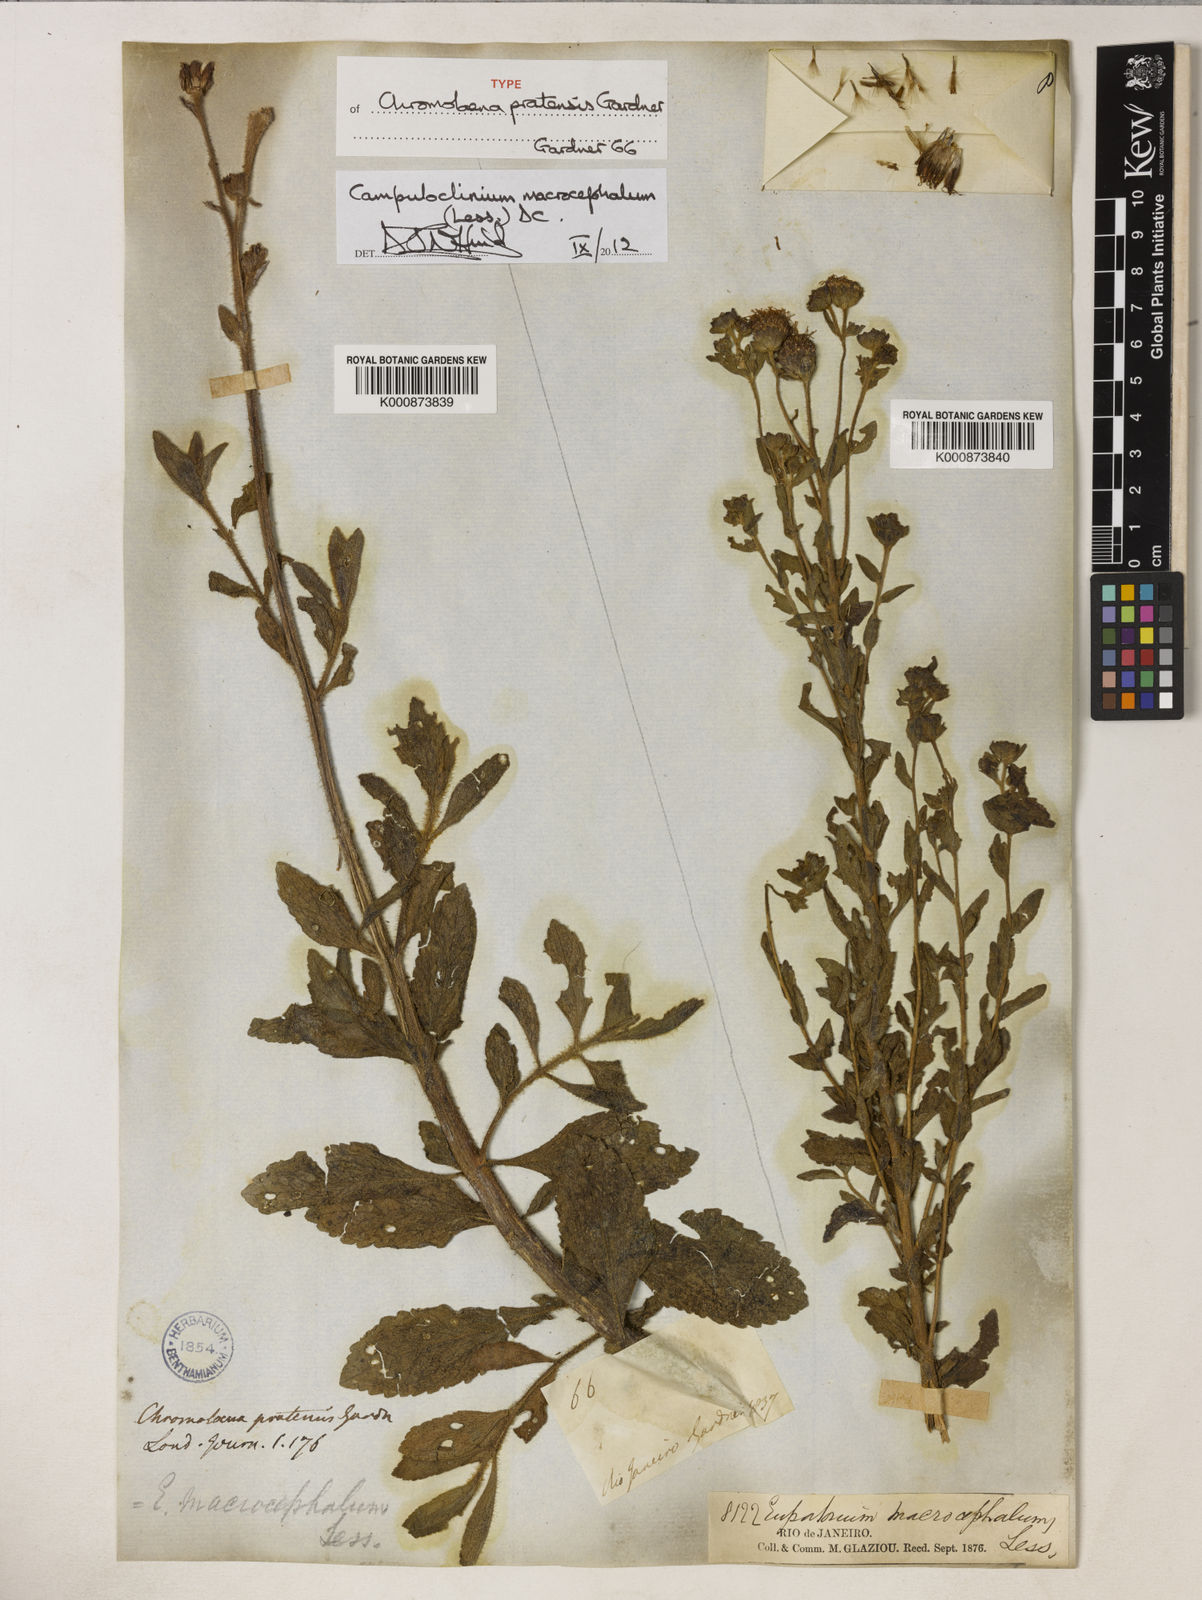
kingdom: Plantae
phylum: Tracheophyta
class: Magnoliopsida
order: Asterales
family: Asteraceae
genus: Campuloclinium
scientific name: Campuloclinium macrocephalum
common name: Pompomweed
